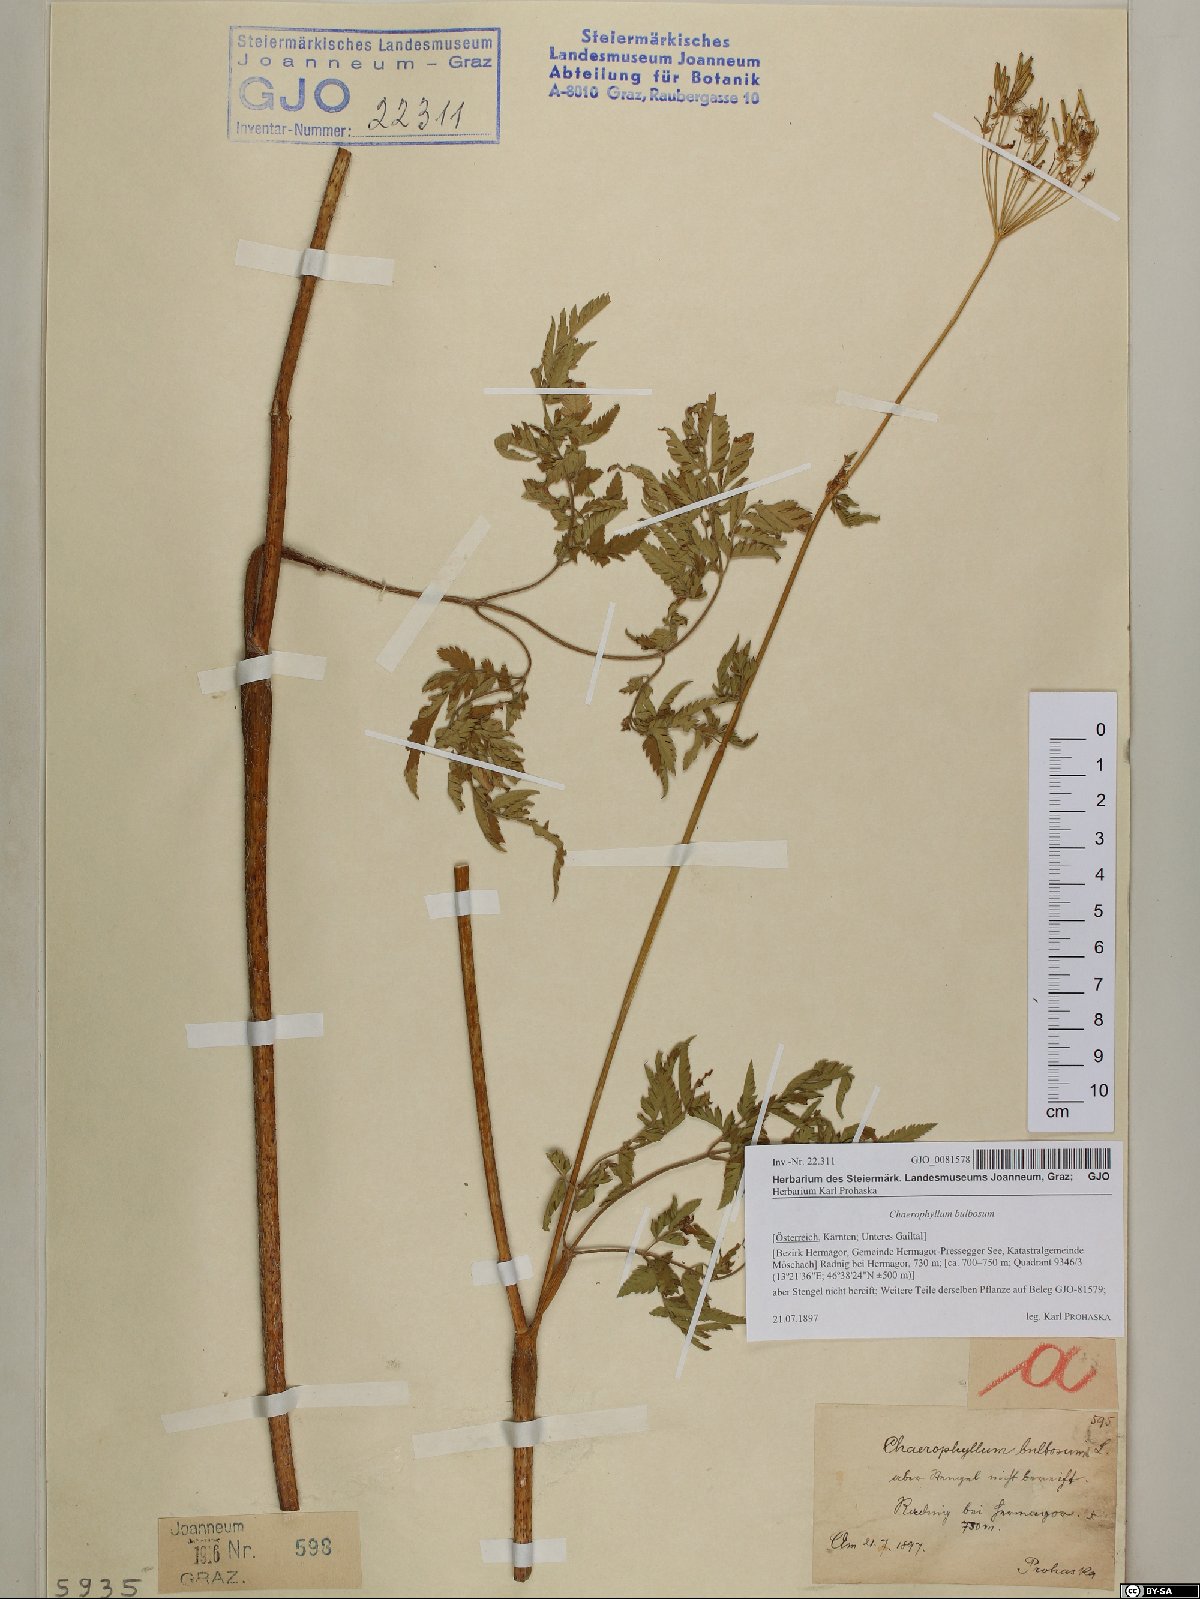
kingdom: Plantae
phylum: Tracheophyta
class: Magnoliopsida
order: Apiales
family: Apiaceae
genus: Chaerophyllum
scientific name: Chaerophyllum bulbosum
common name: Bulbous chervil
